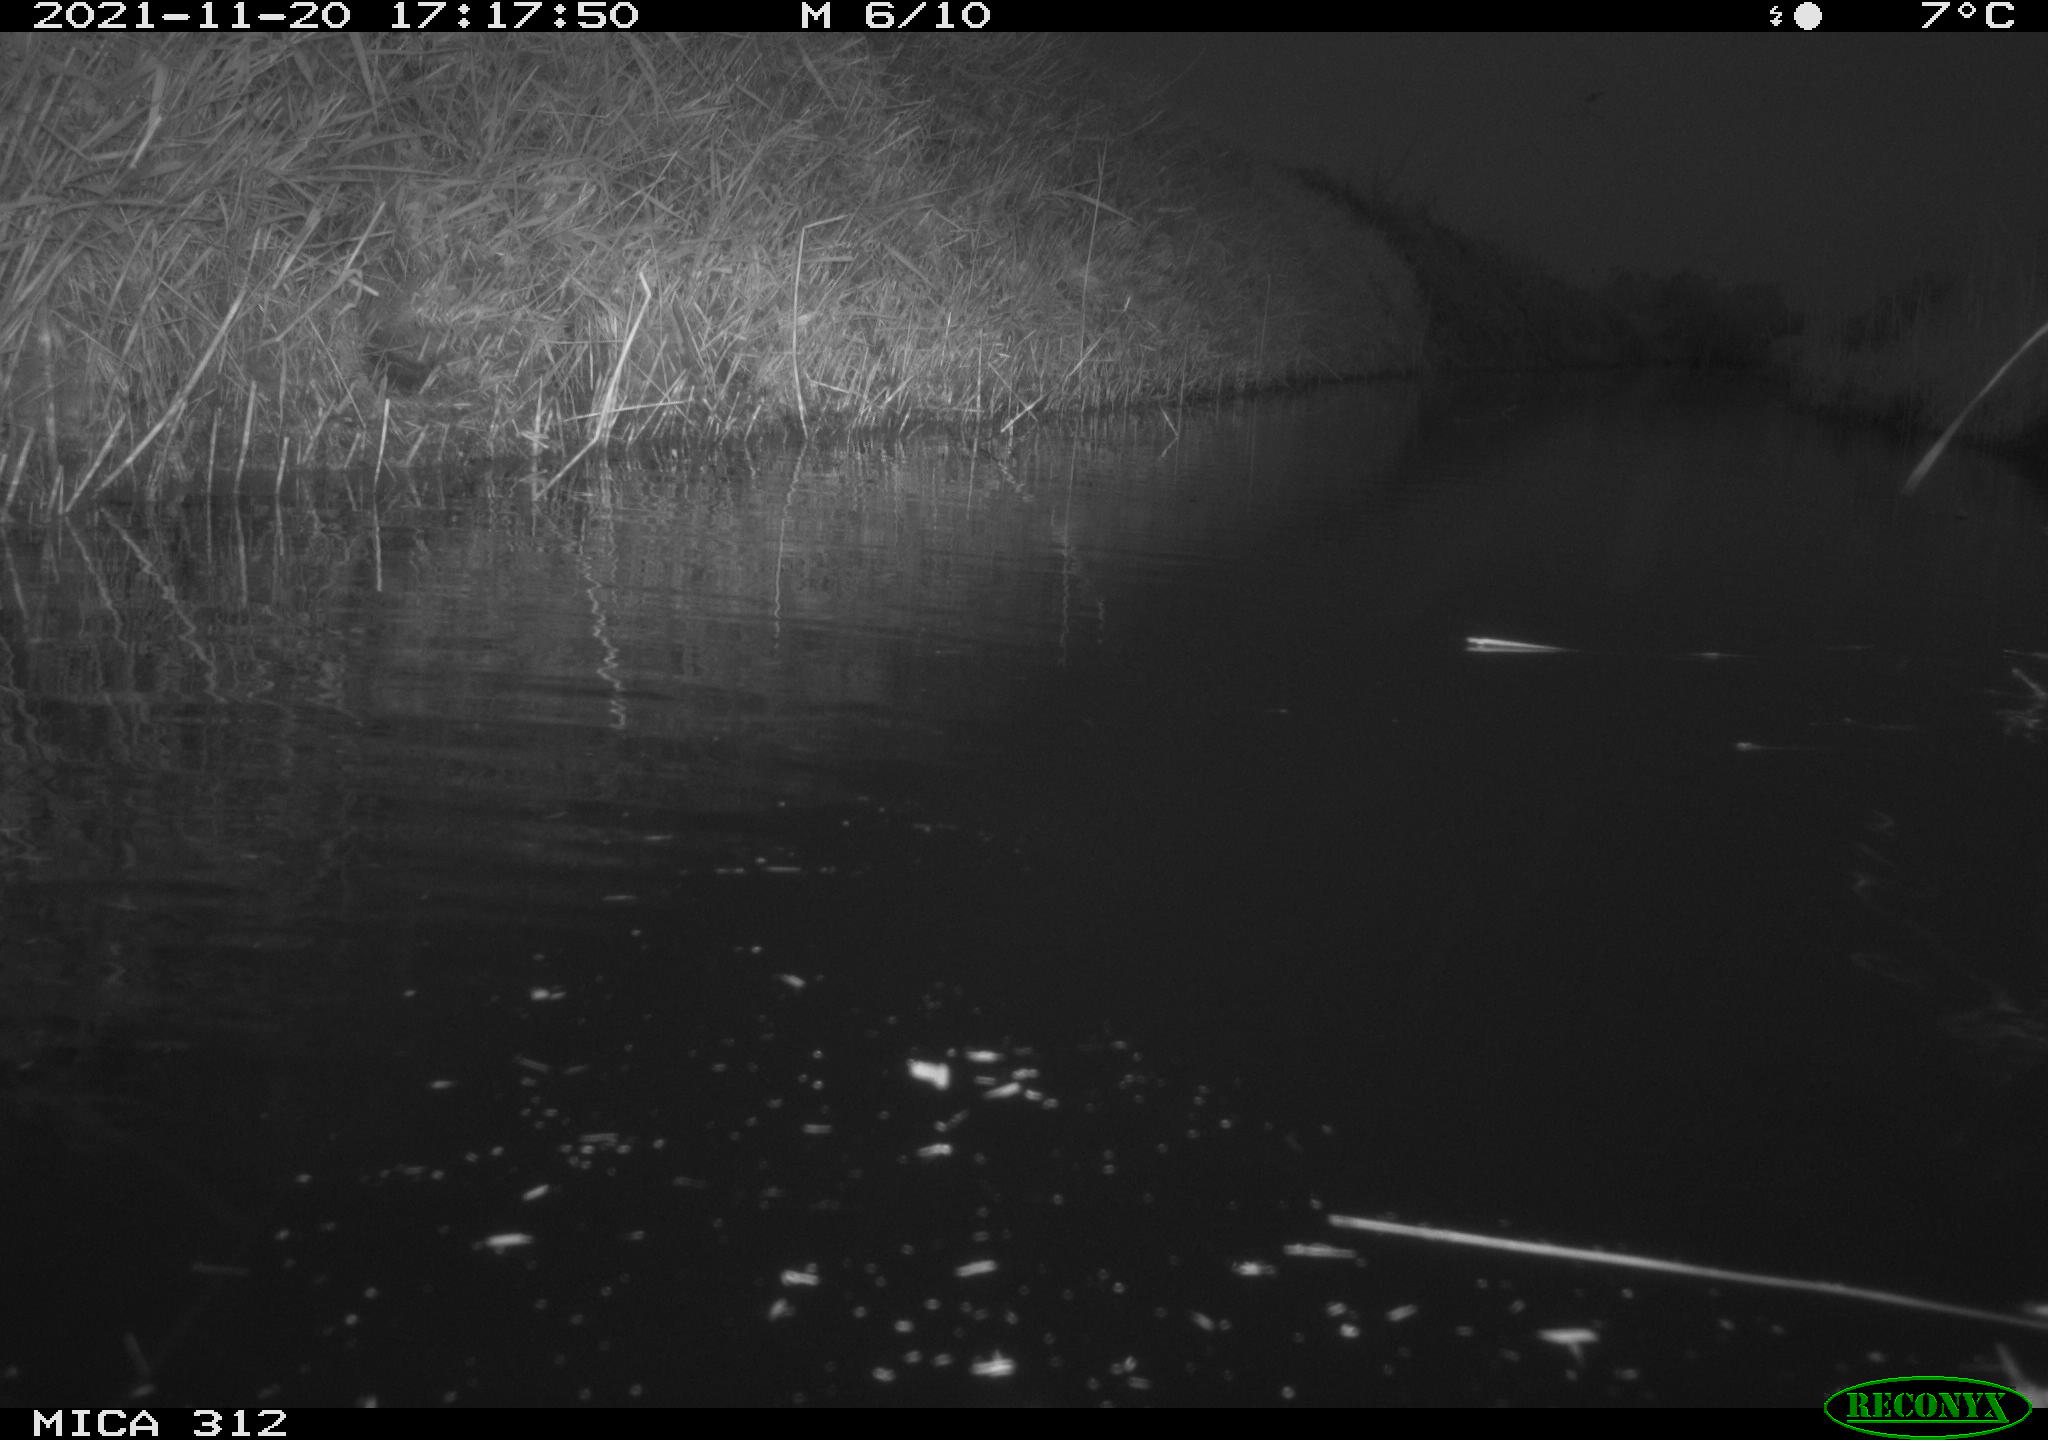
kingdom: Animalia
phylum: Chordata
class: Aves
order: Gruiformes
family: Rallidae
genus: Gallinula
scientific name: Gallinula chloropus
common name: Common moorhen
